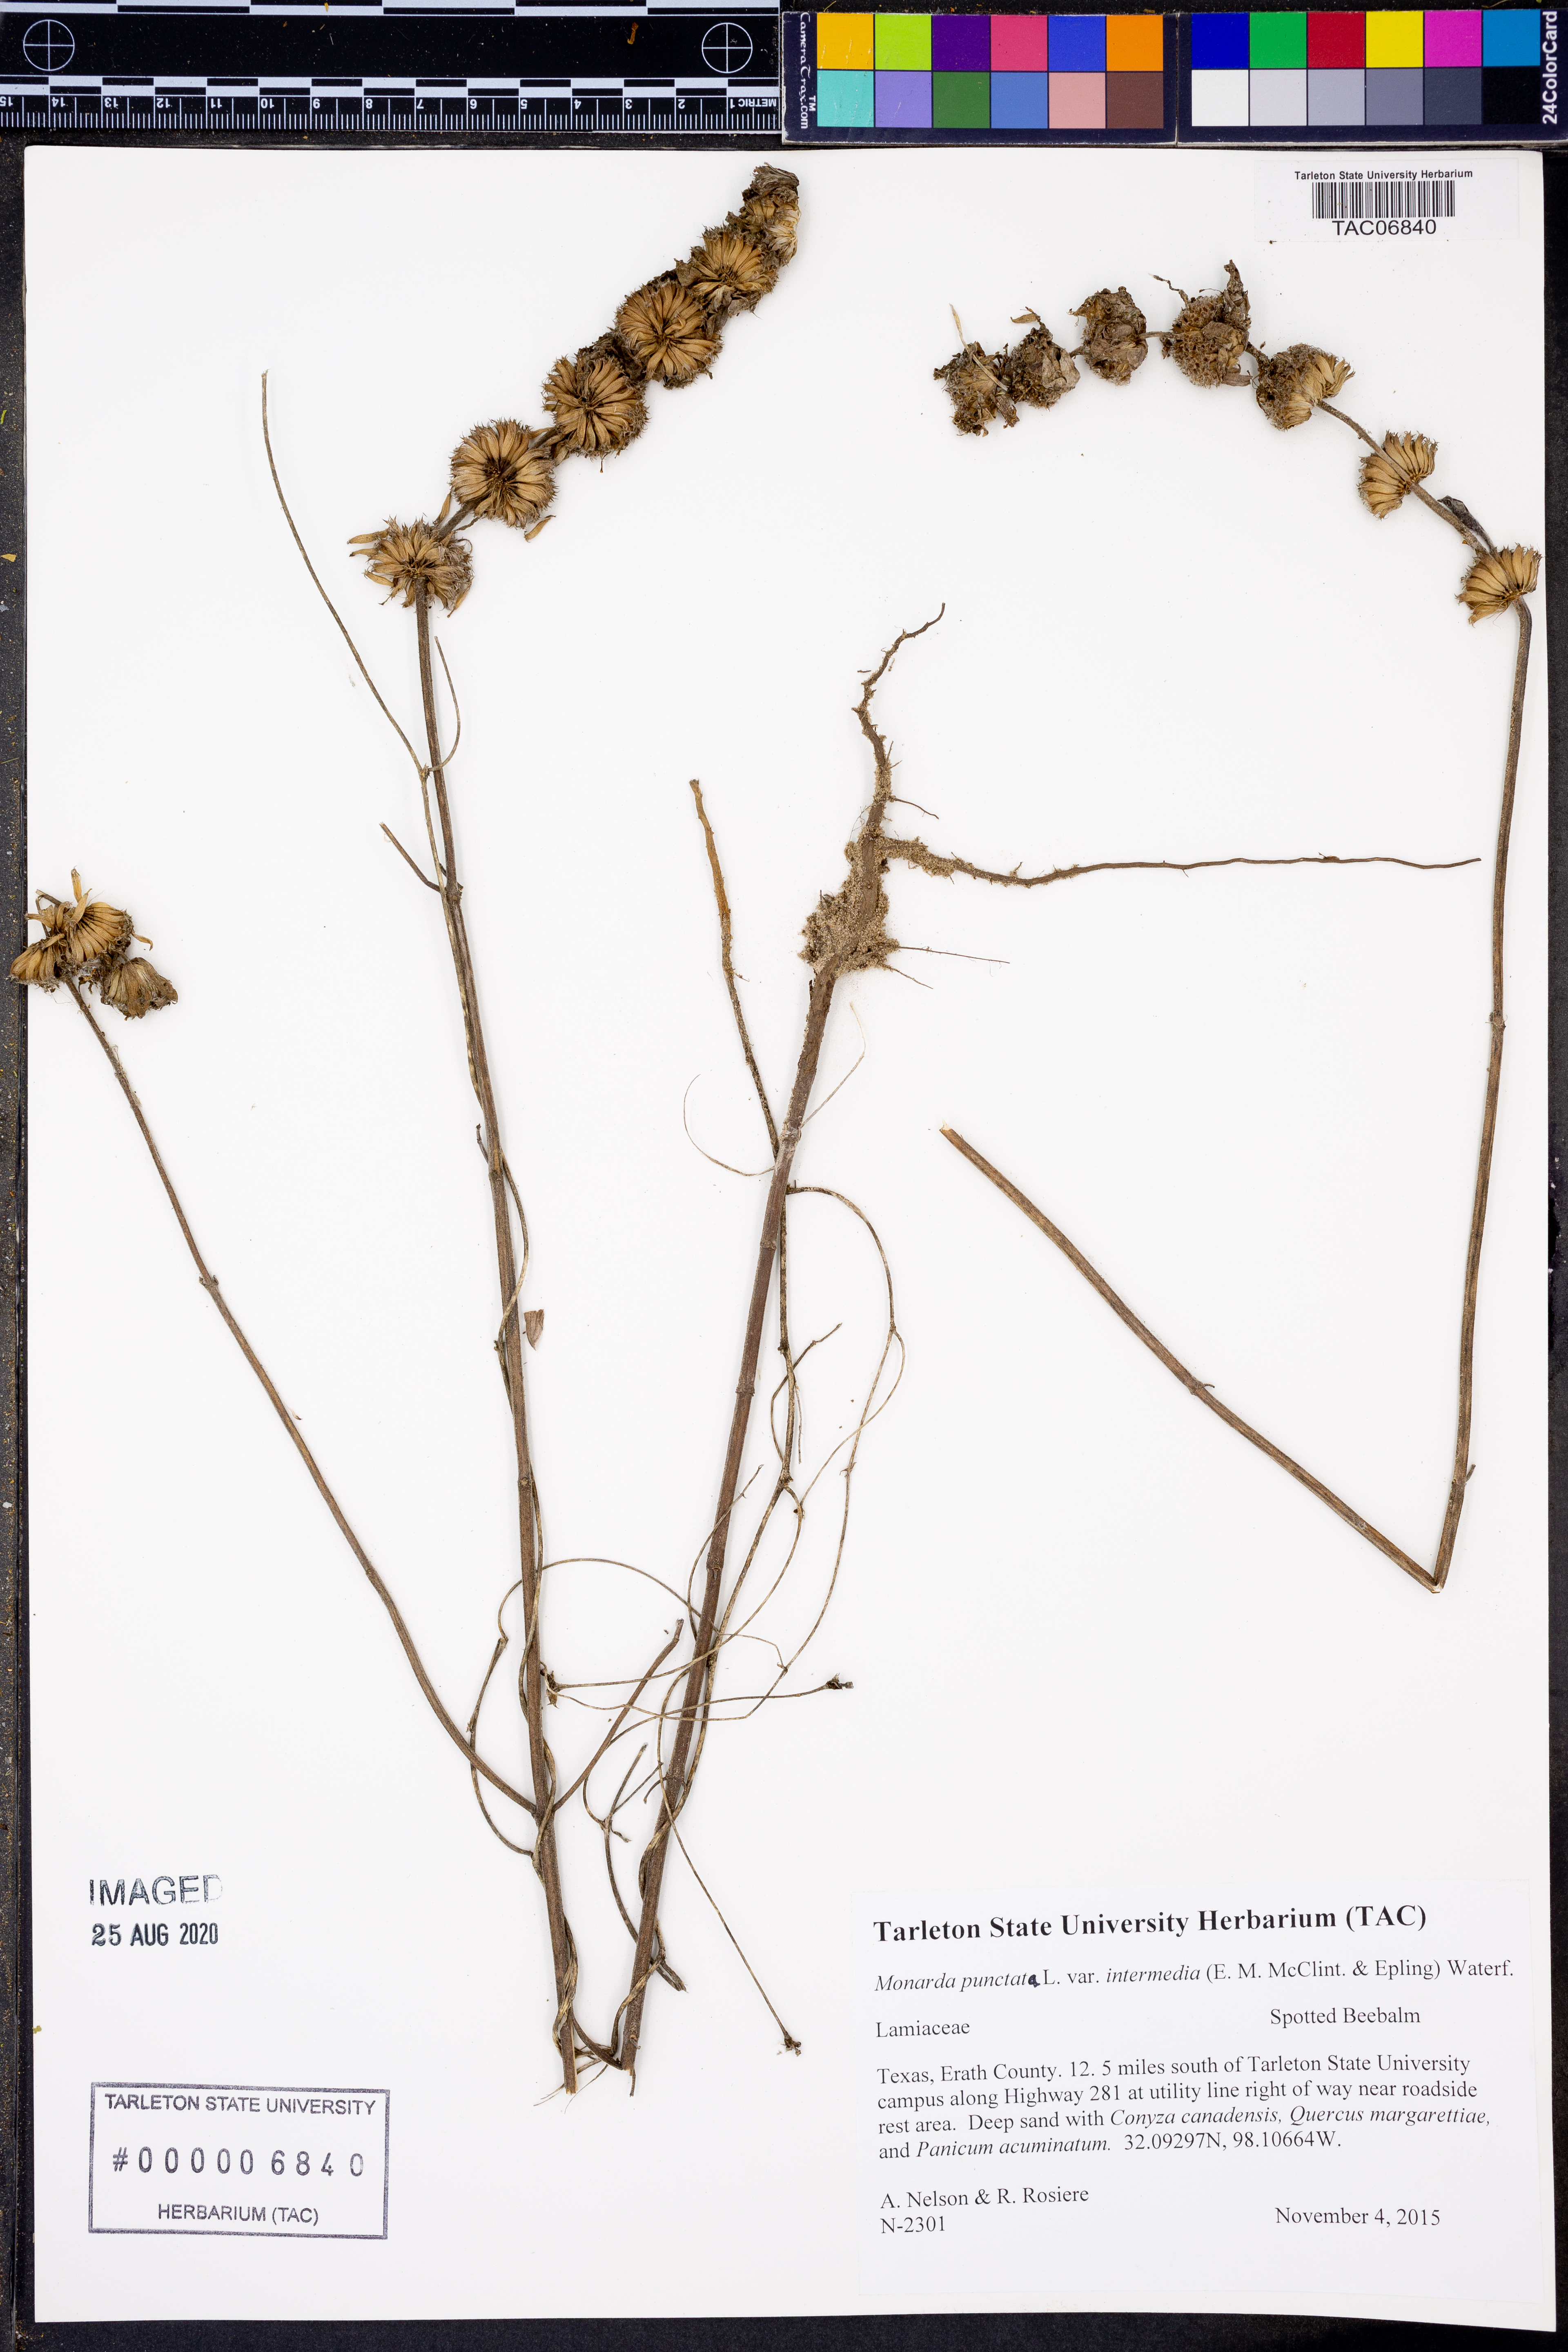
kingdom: Plantae
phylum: Tracheophyta
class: Magnoliopsida
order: Lamiales
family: Lamiaceae
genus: Monarda
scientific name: Monarda punctata
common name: Dotted monarda
